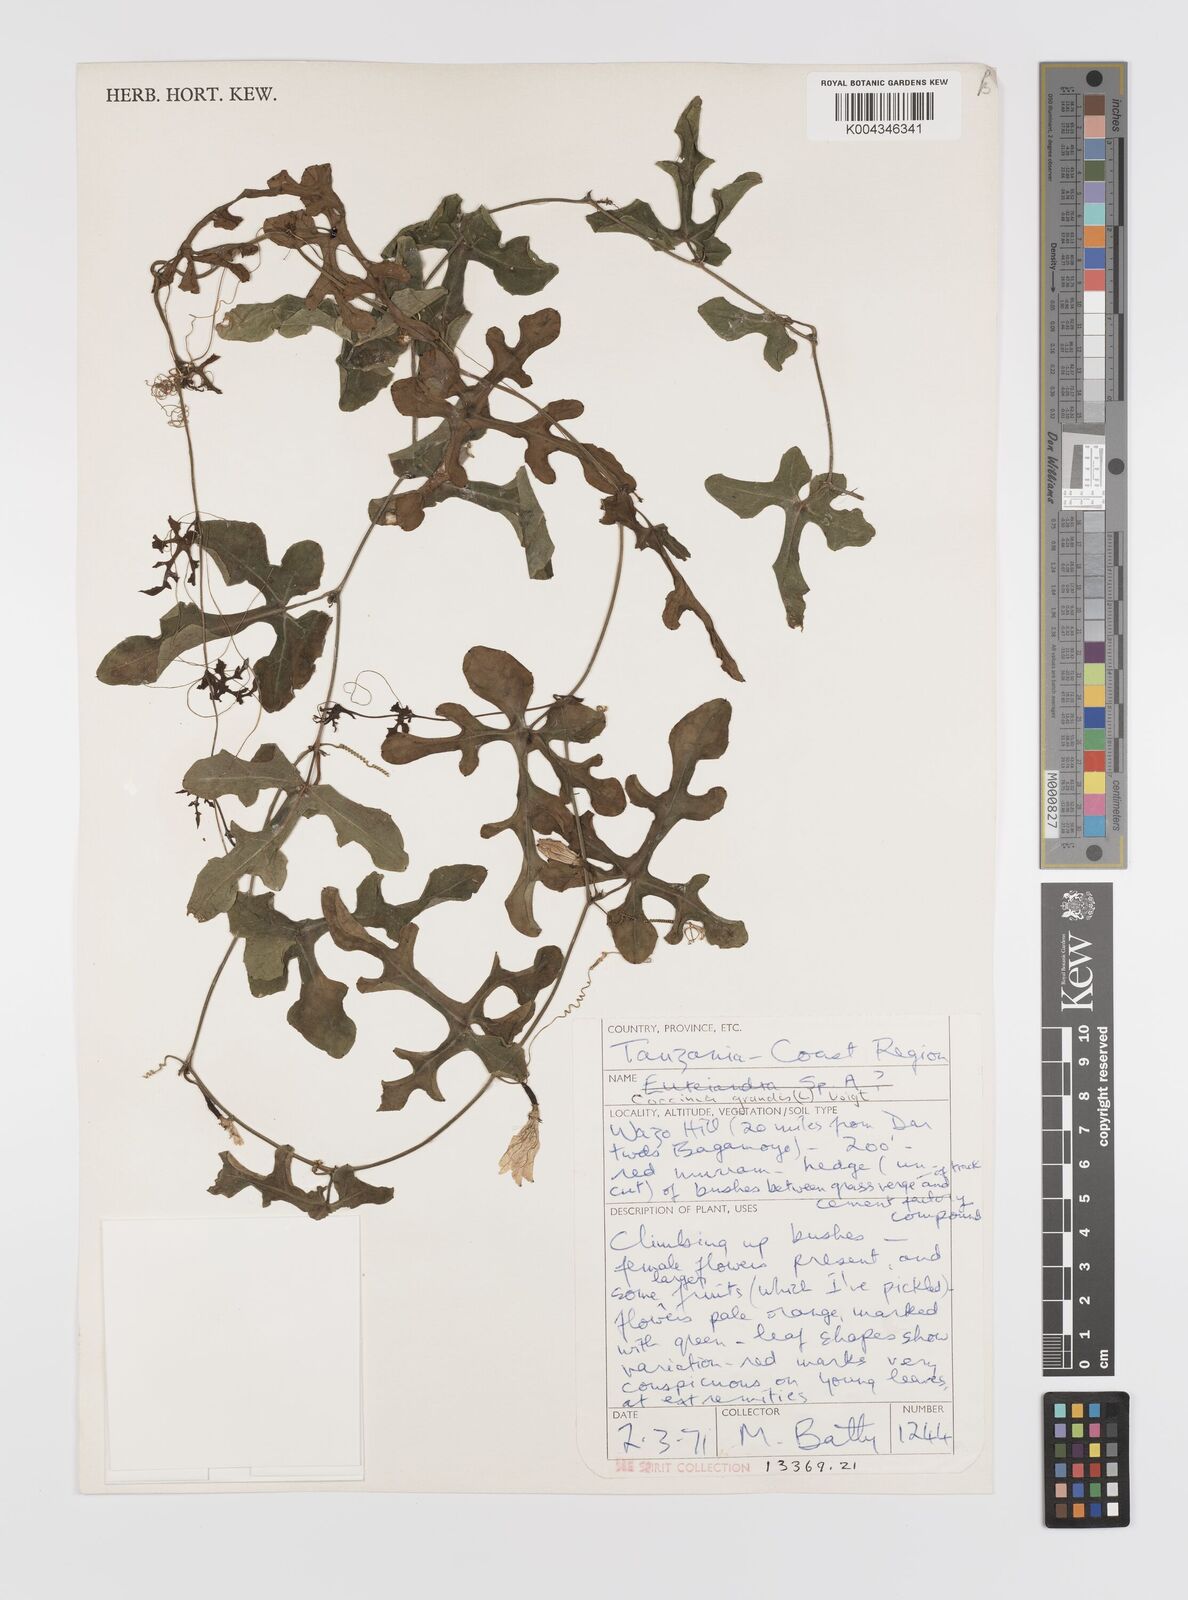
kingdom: Plantae
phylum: Tracheophyta
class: Magnoliopsida
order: Cucurbitales
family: Cucurbitaceae
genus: Coccinia
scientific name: Coccinia grandis
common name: Ivy gourd
